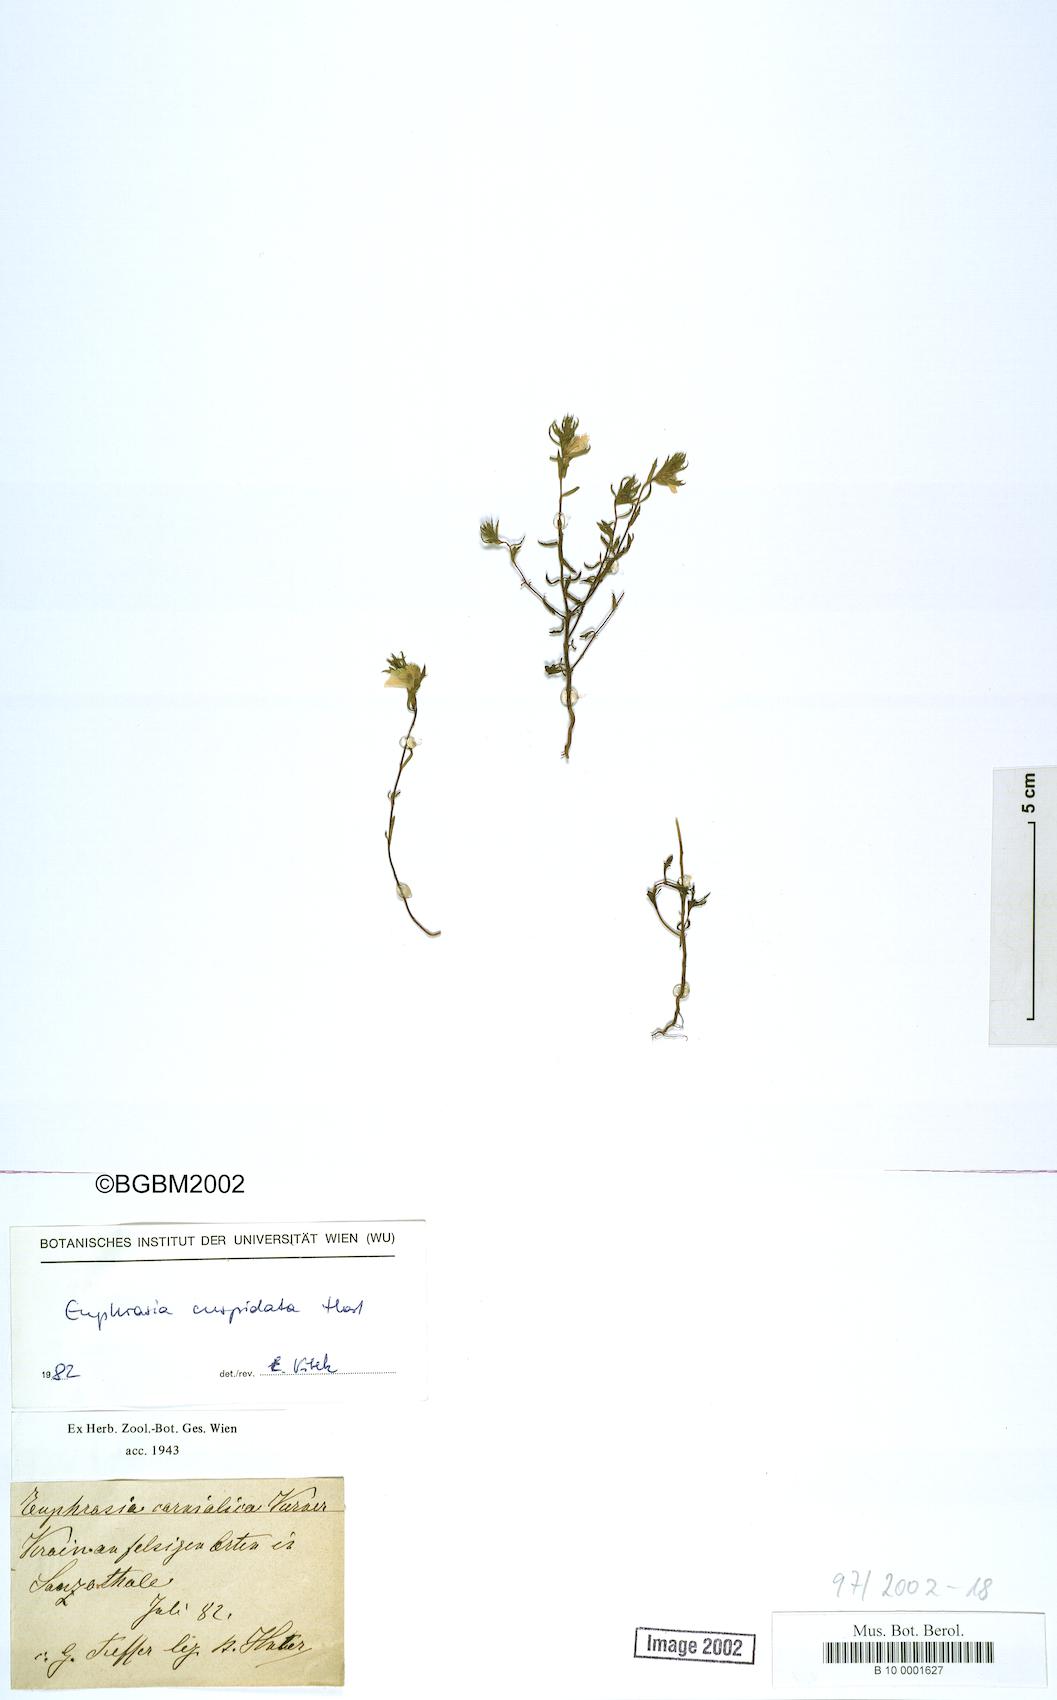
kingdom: Plantae
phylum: Tracheophyta
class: Magnoliopsida
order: Lamiales
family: Orobanchaceae
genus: Euphrasia
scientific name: Euphrasia cuspidata
